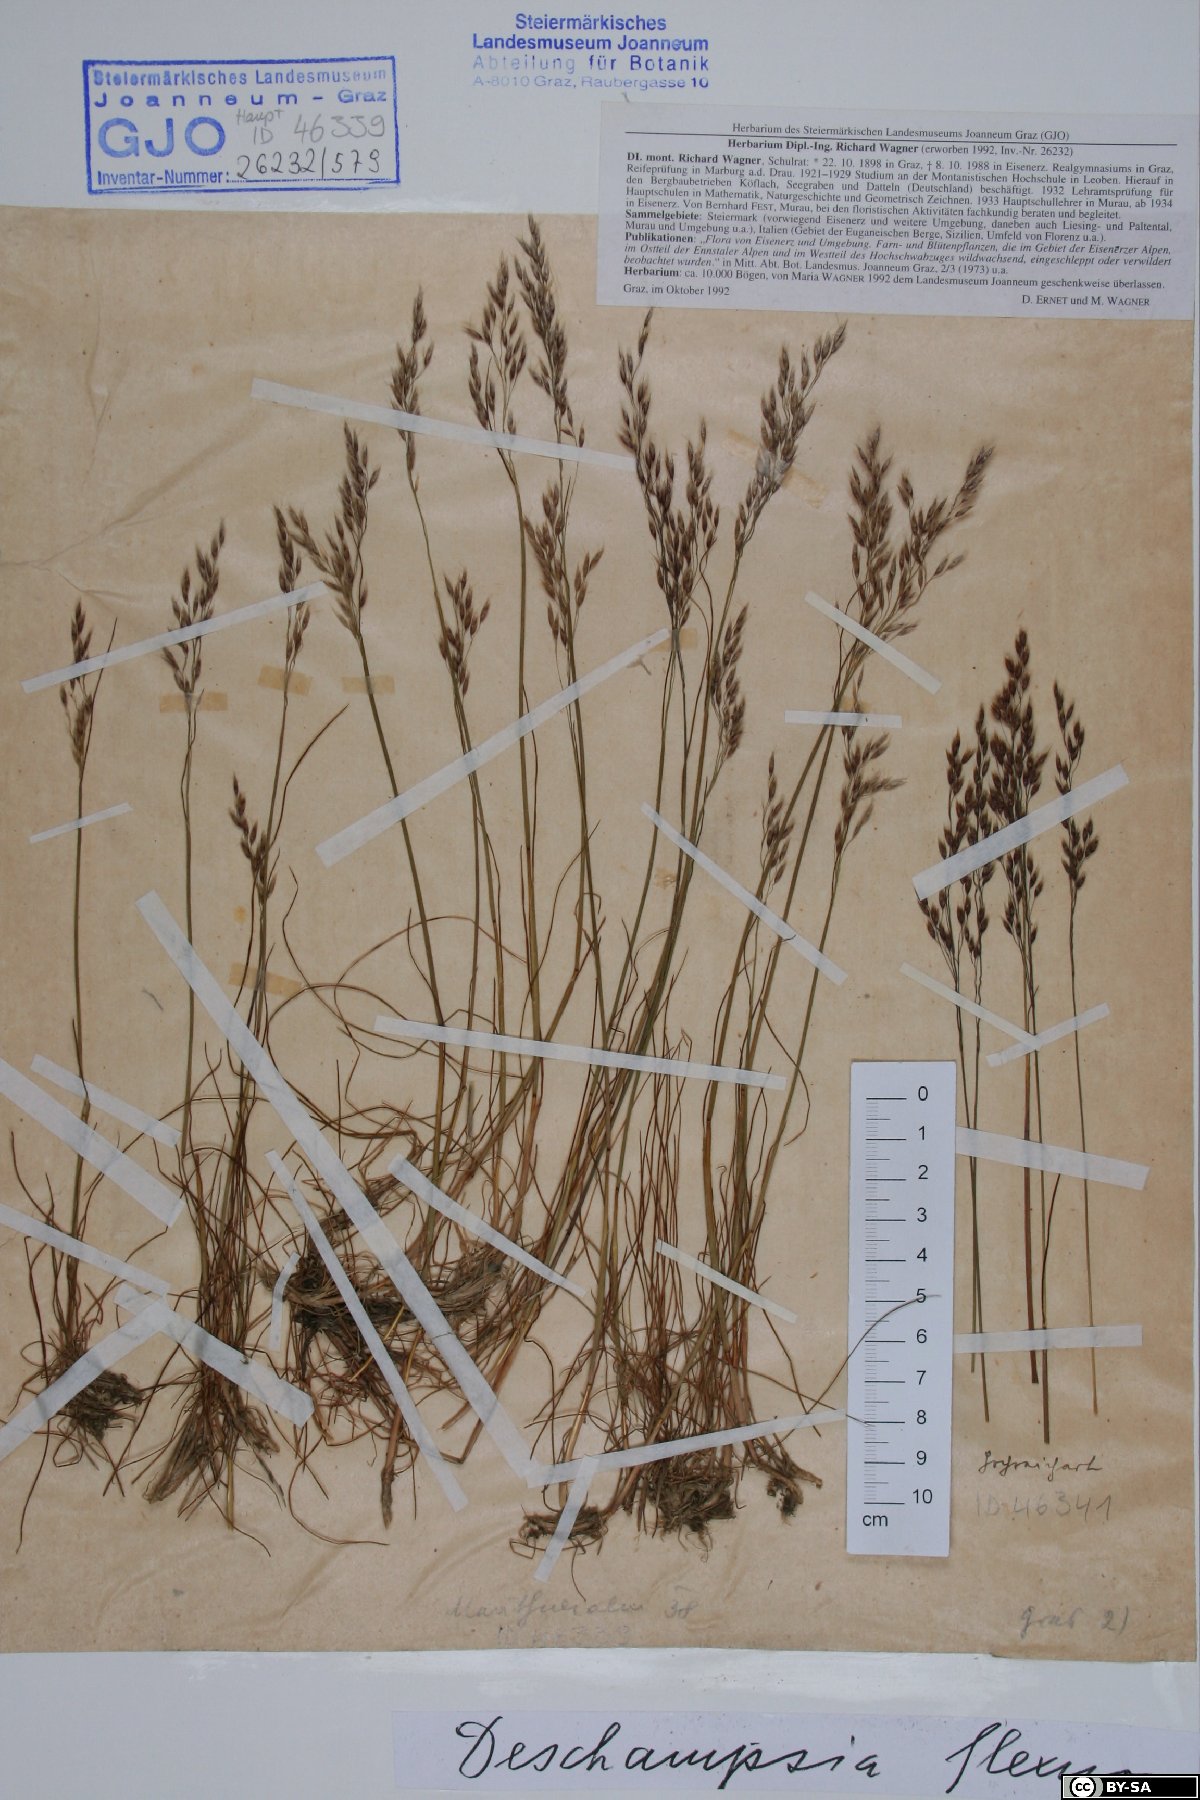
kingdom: Plantae
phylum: Tracheophyta
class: Liliopsida
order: Poales
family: Poaceae
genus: Avenella
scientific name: Avenella flexuosa
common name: Wavy hairgrass
